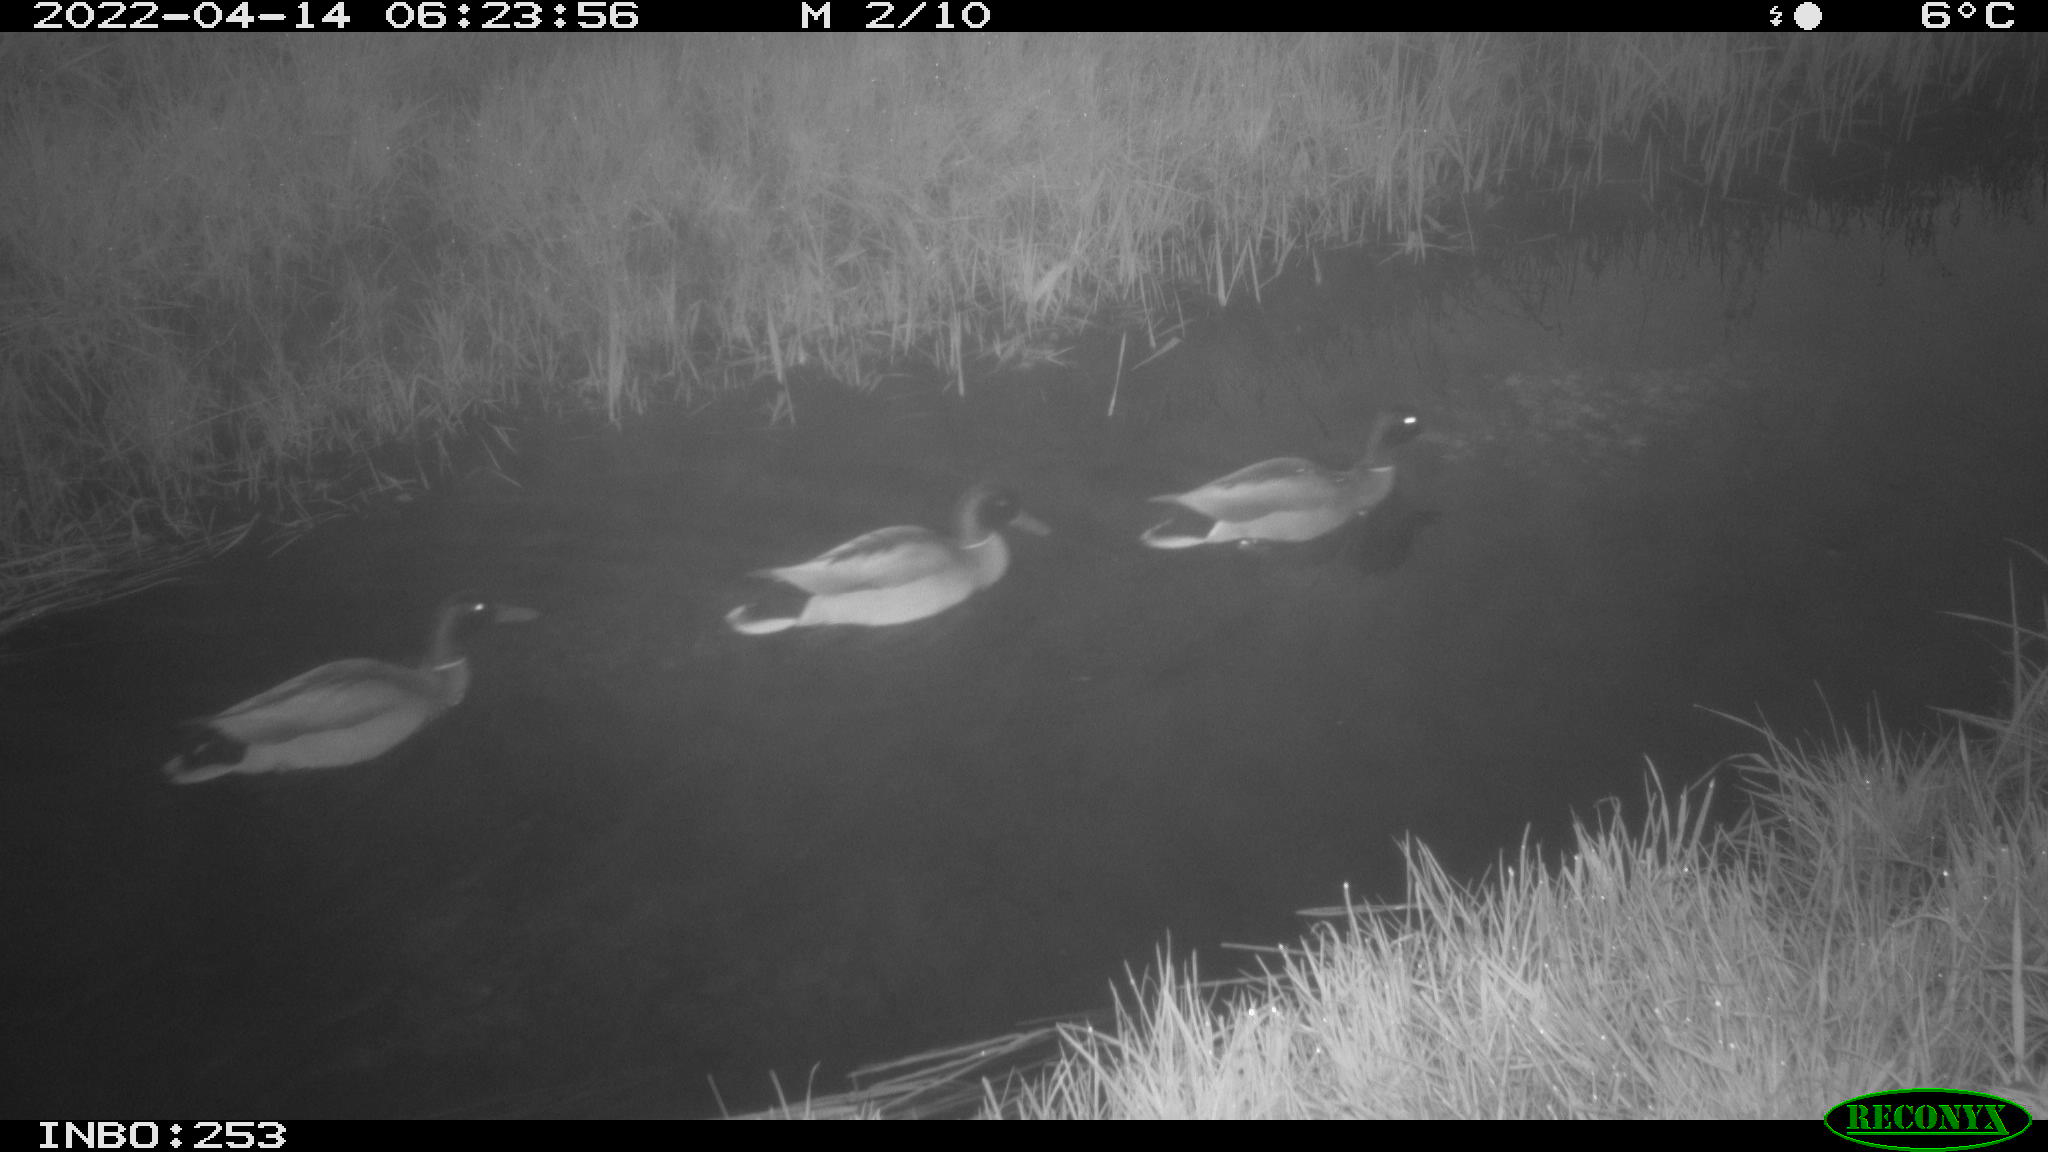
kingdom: Animalia
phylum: Chordata
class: Aves
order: Anseriformes
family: Anatidae
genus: Anas
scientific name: Anas platyrhynchos
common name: Mallard
